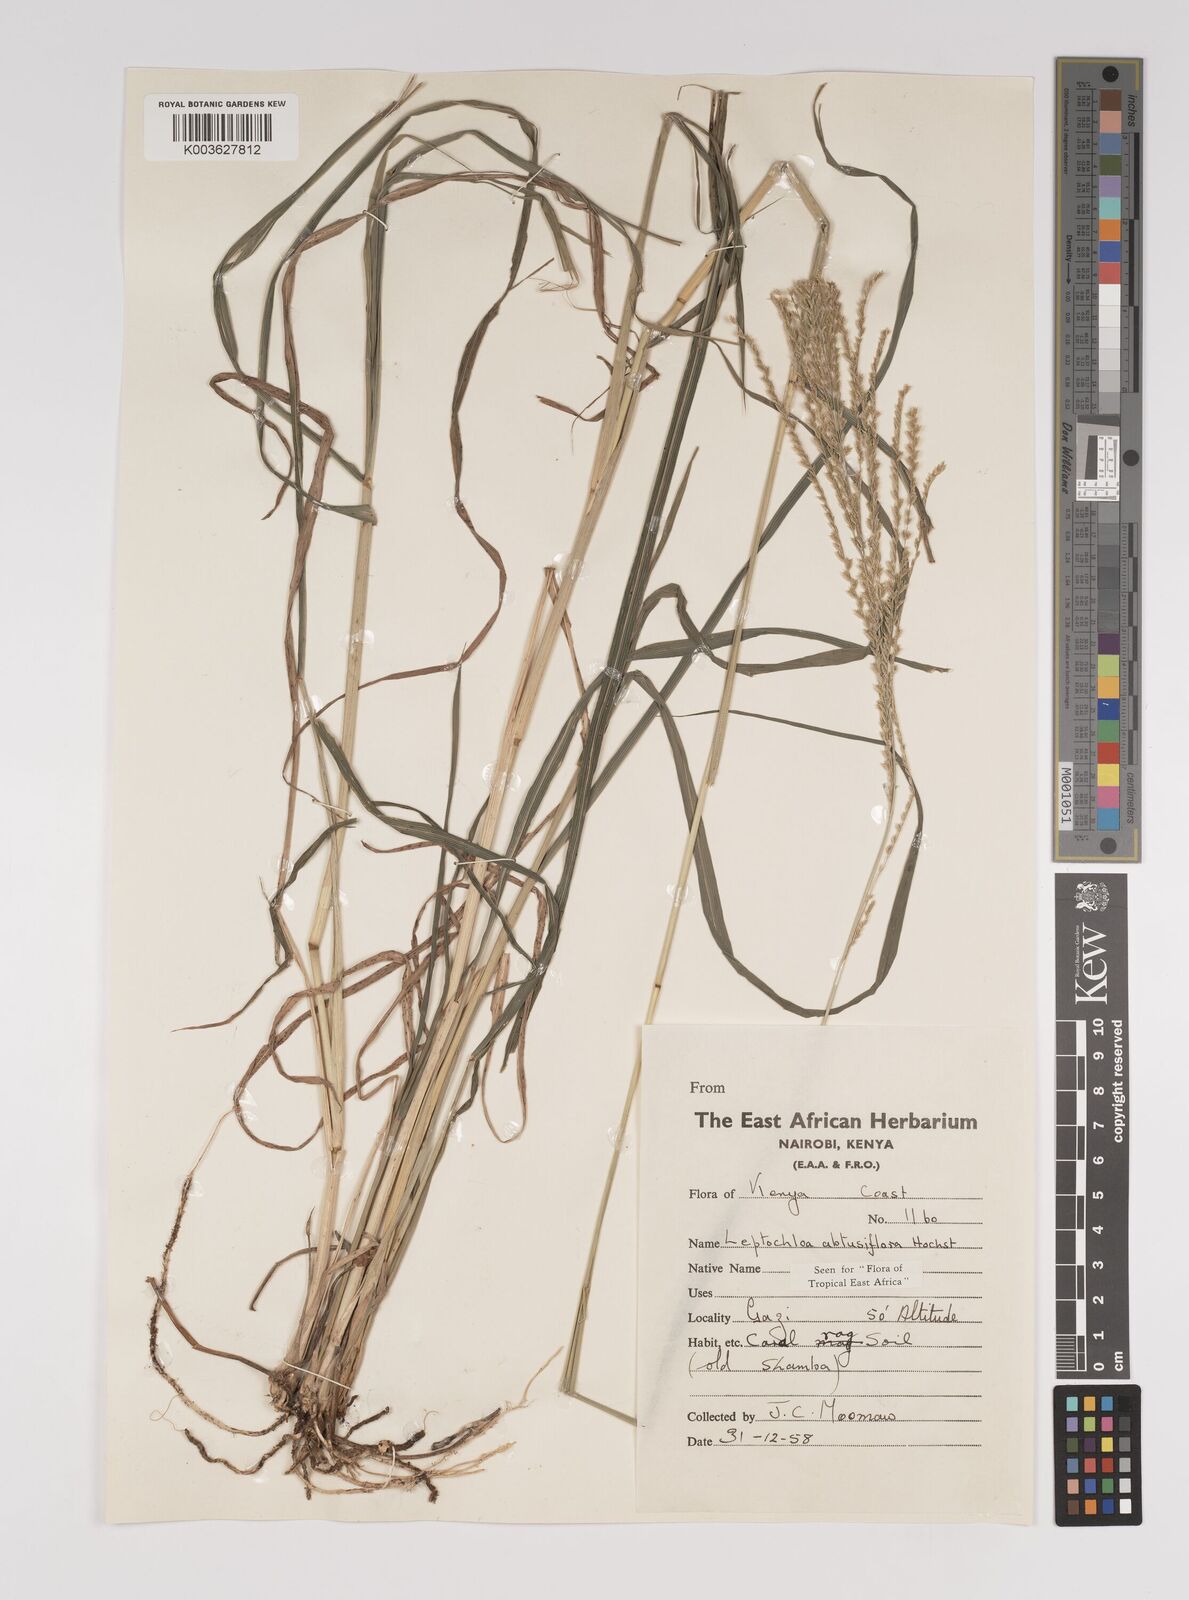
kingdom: Plantae
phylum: Tracheophyta
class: Liliopsida
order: Poales
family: Poaceae
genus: Disakisperma
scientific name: Disakisperma obtusiflorum
